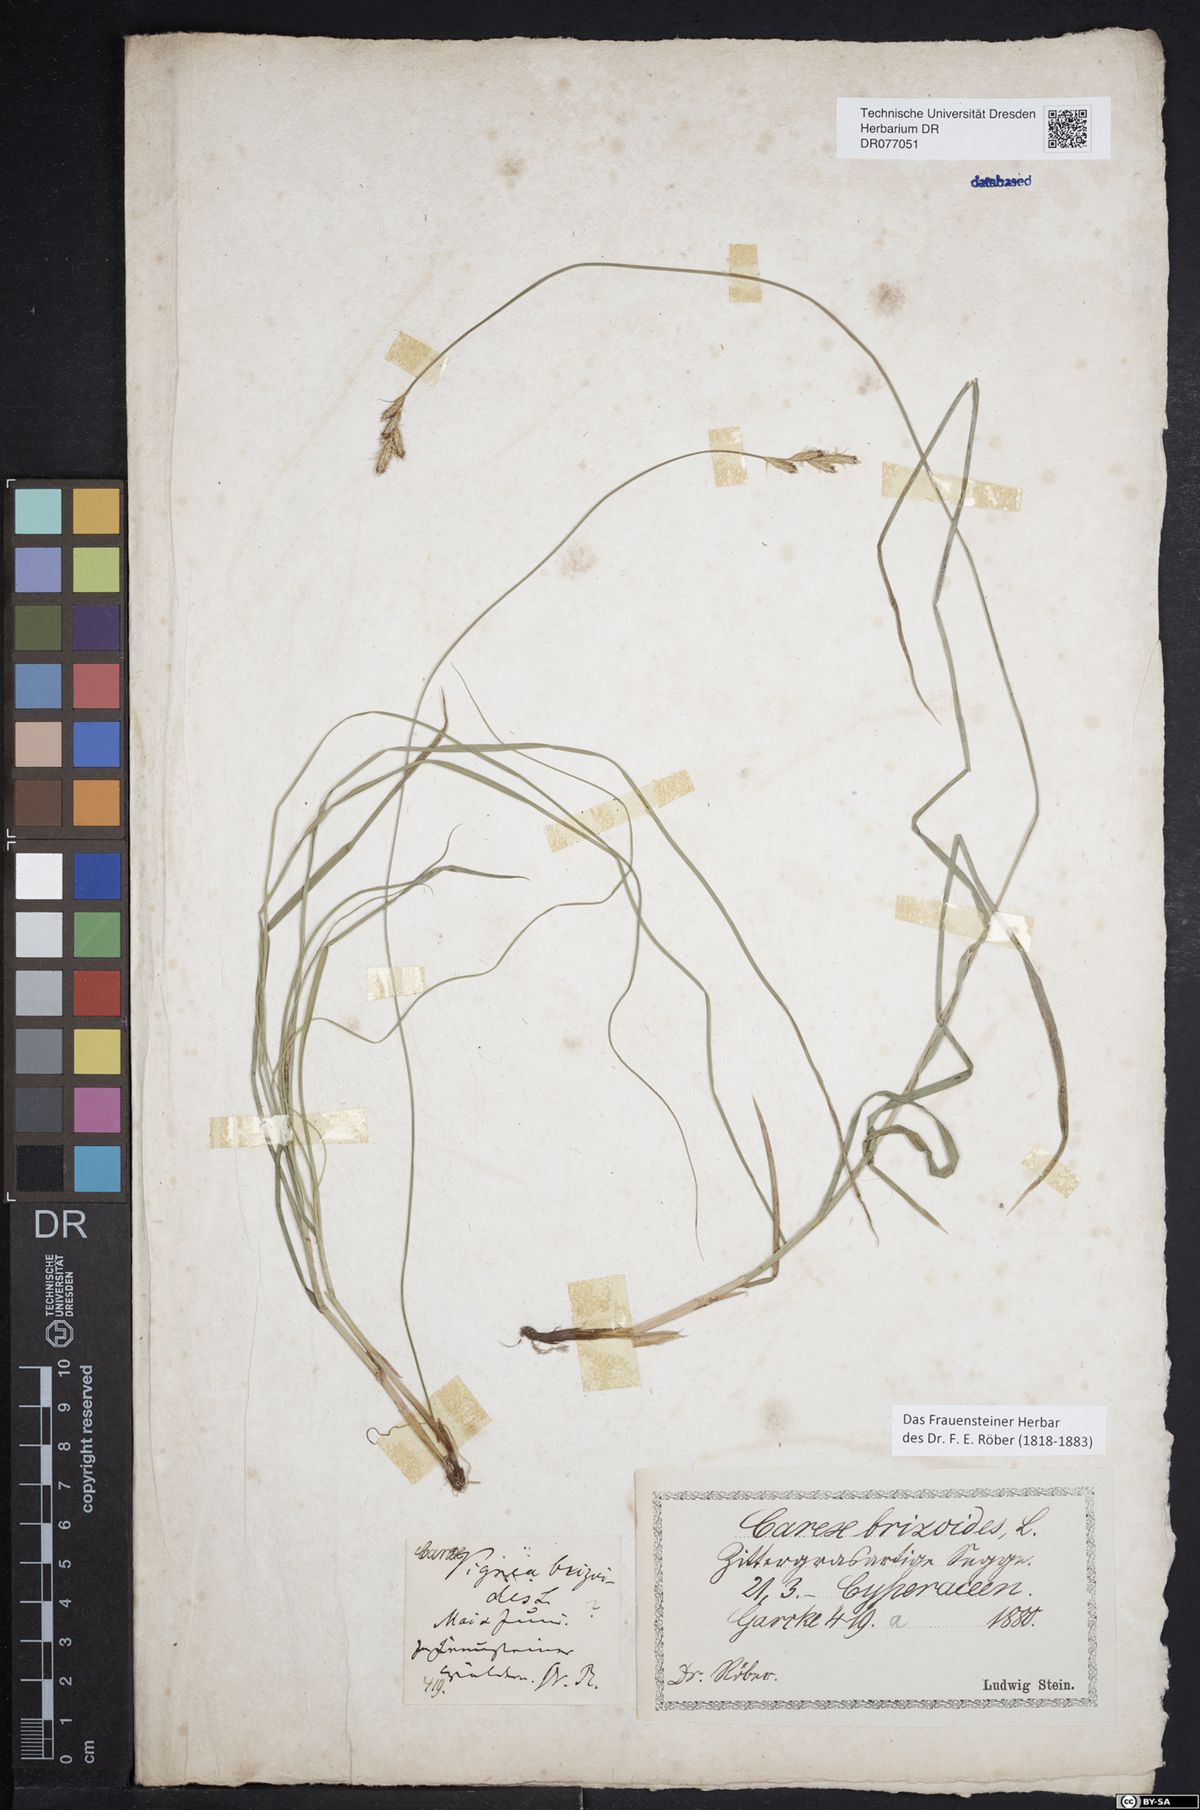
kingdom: Plantae
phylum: Tracheophyta
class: Liliopsida
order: Poales
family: Cyperaceae
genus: Carex
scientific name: Carex brizoides
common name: Quaking-grass sedge
